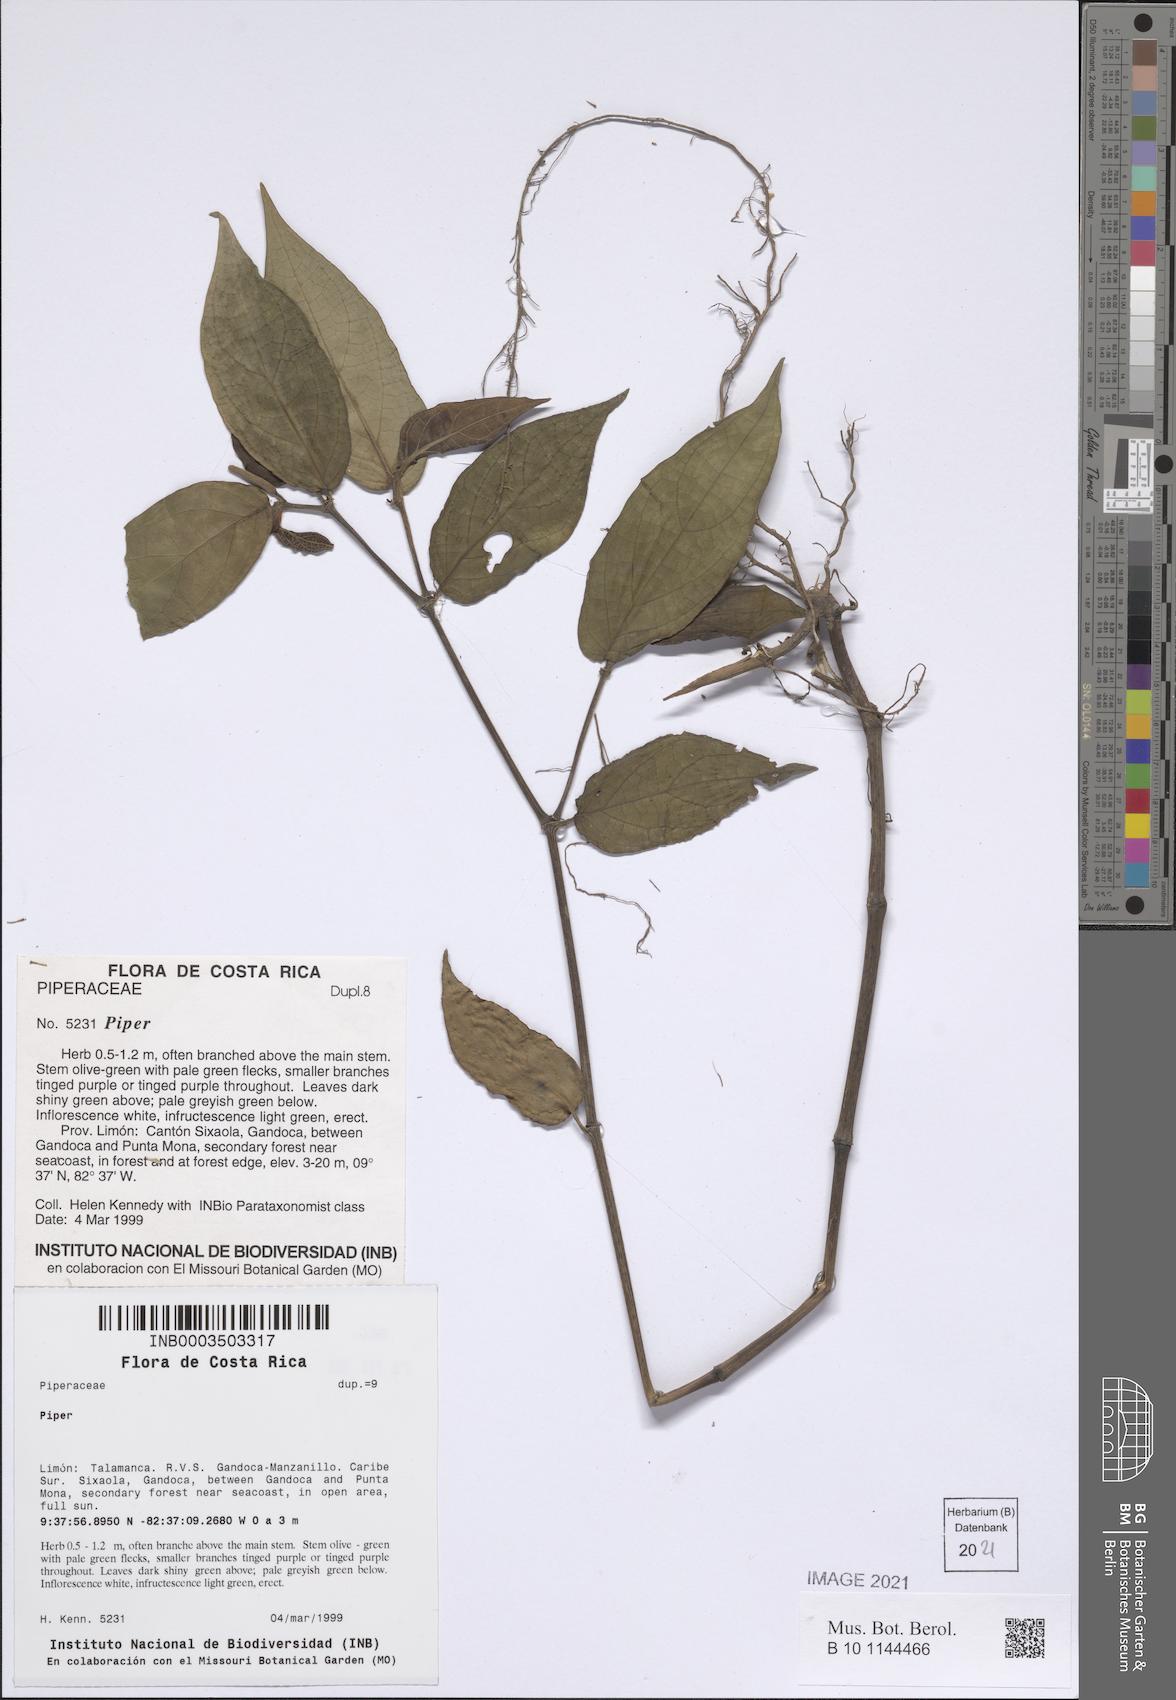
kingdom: Plantae
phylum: Tracheophyta
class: Magnoliopsida
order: Piperales
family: Piperaceae
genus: Piper
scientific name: Piper
